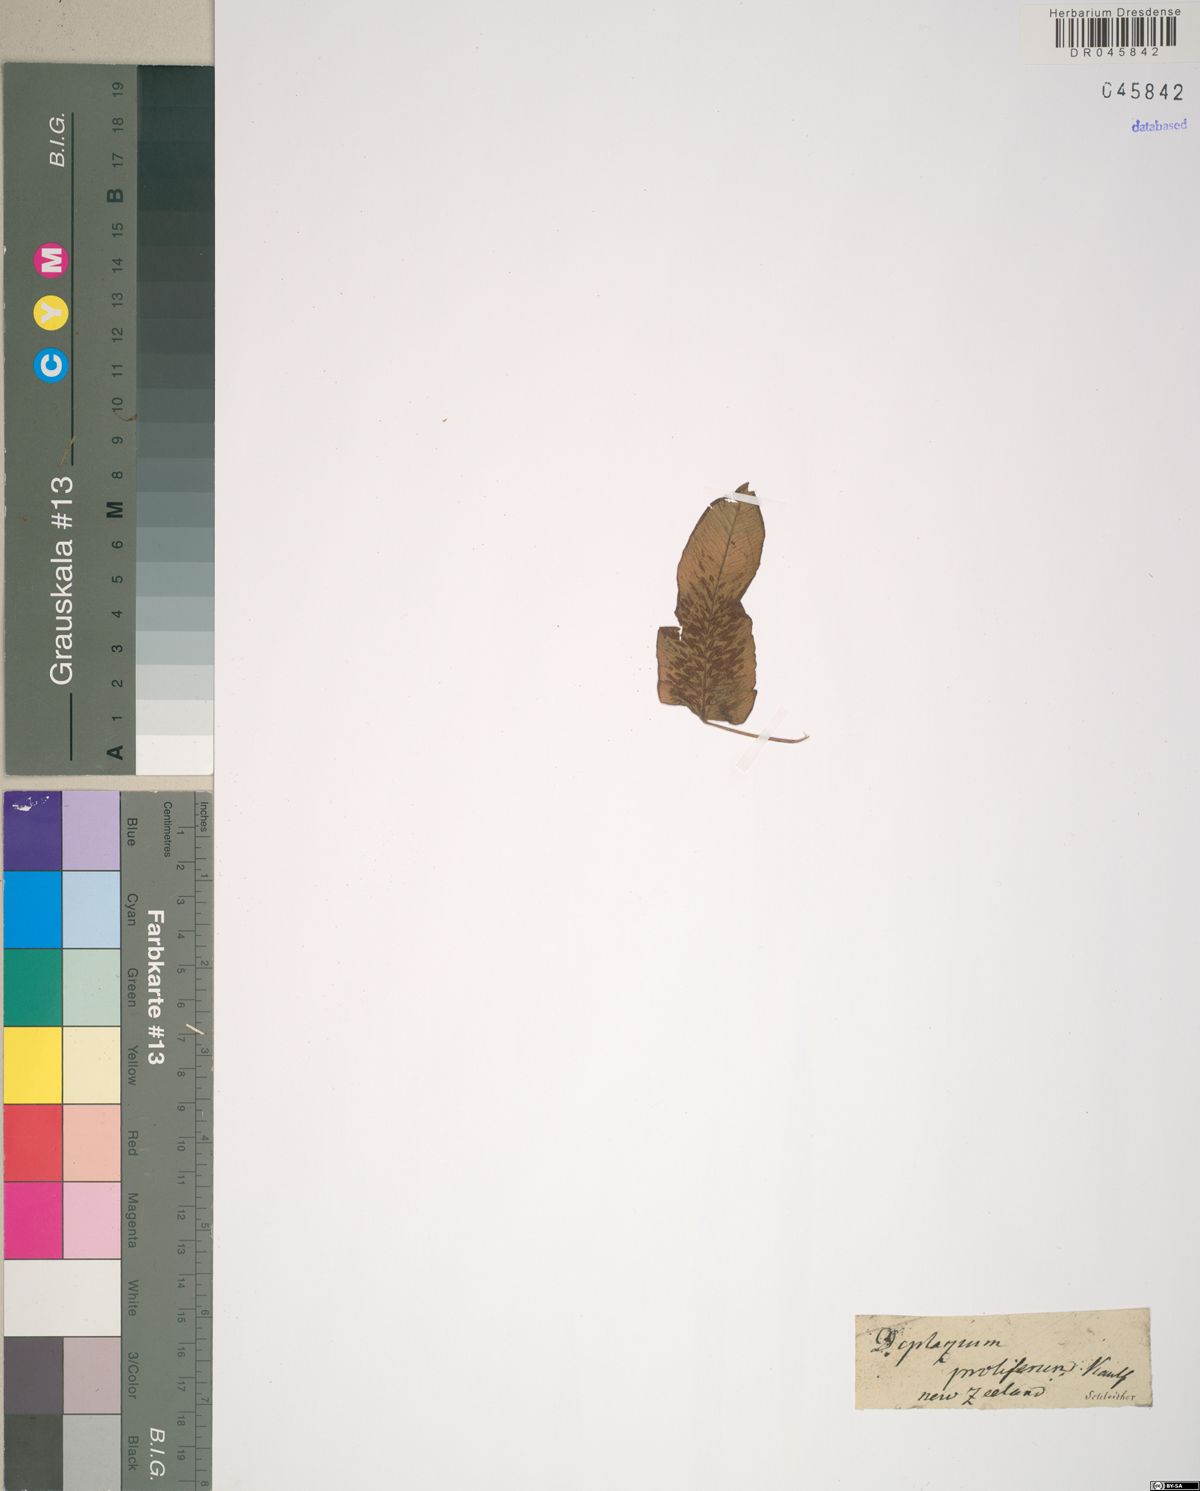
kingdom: Plantae
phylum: Tracheophyta
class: Polypodiopsida
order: Polypodiales
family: Athyriaceae
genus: Diplazium
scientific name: Diplazium proliferum
